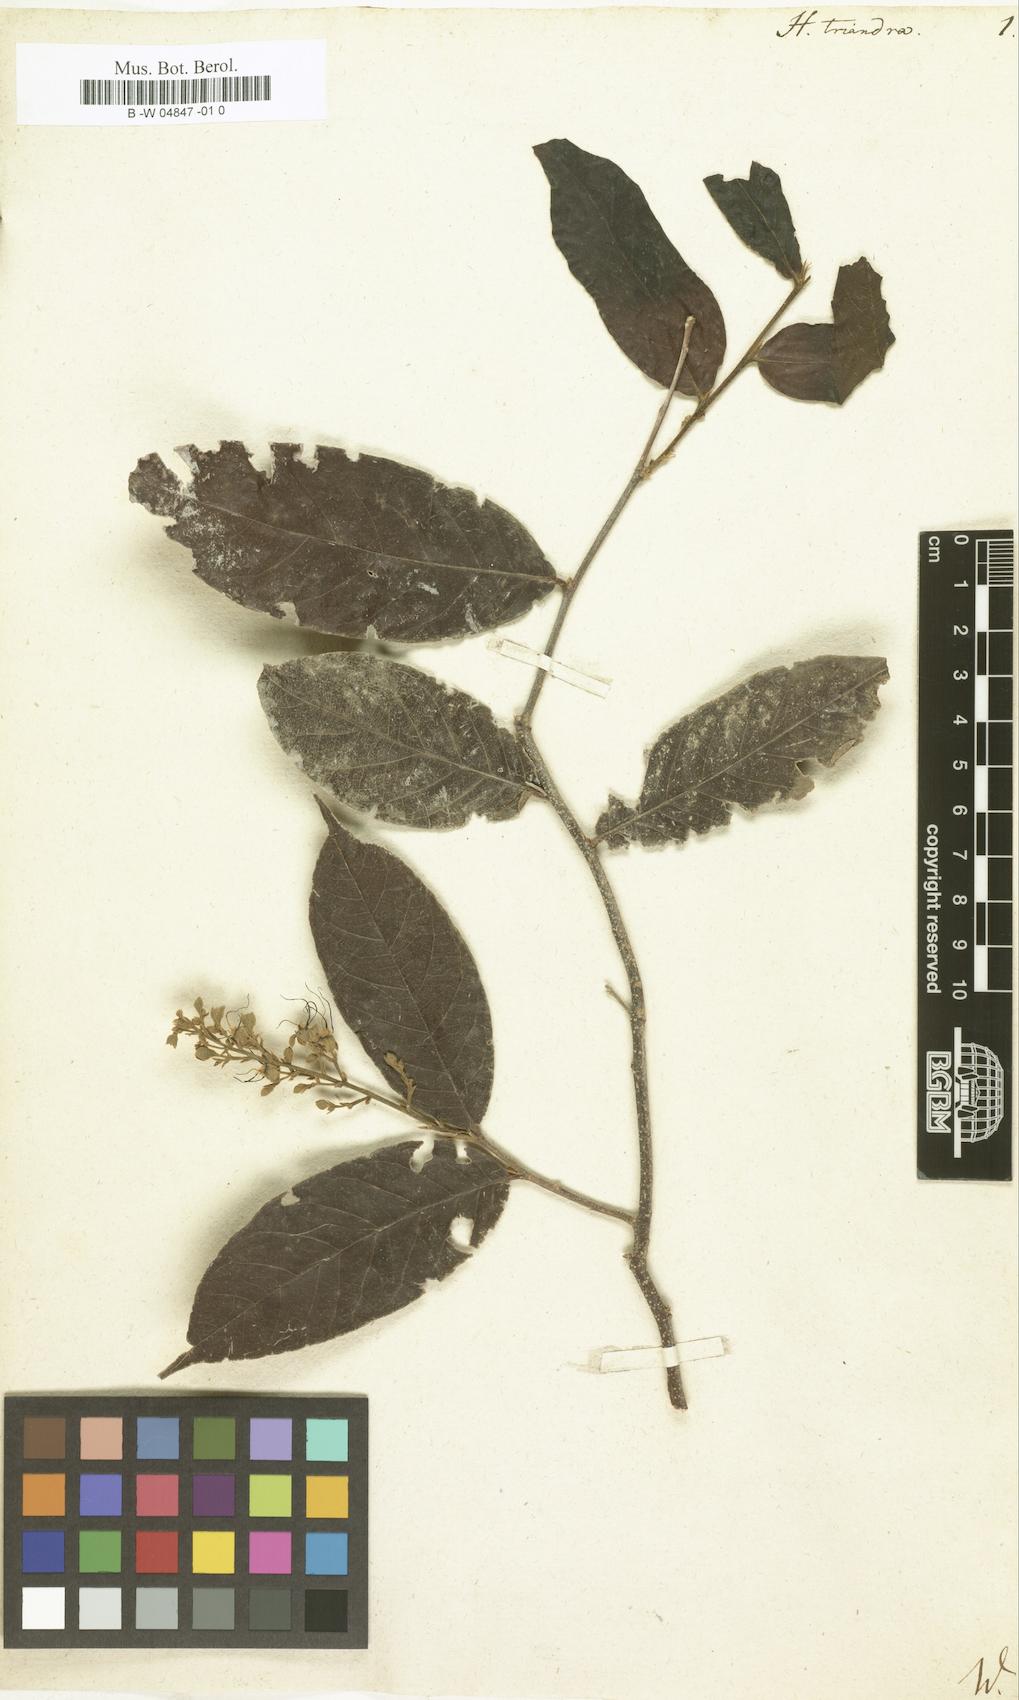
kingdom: Plantae
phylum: Tracheophyta
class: Magnoliopsida
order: Malpighiales
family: Chrysobalanaceae
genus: Hirtella
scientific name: Hirtella triandra
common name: Hairy plum
